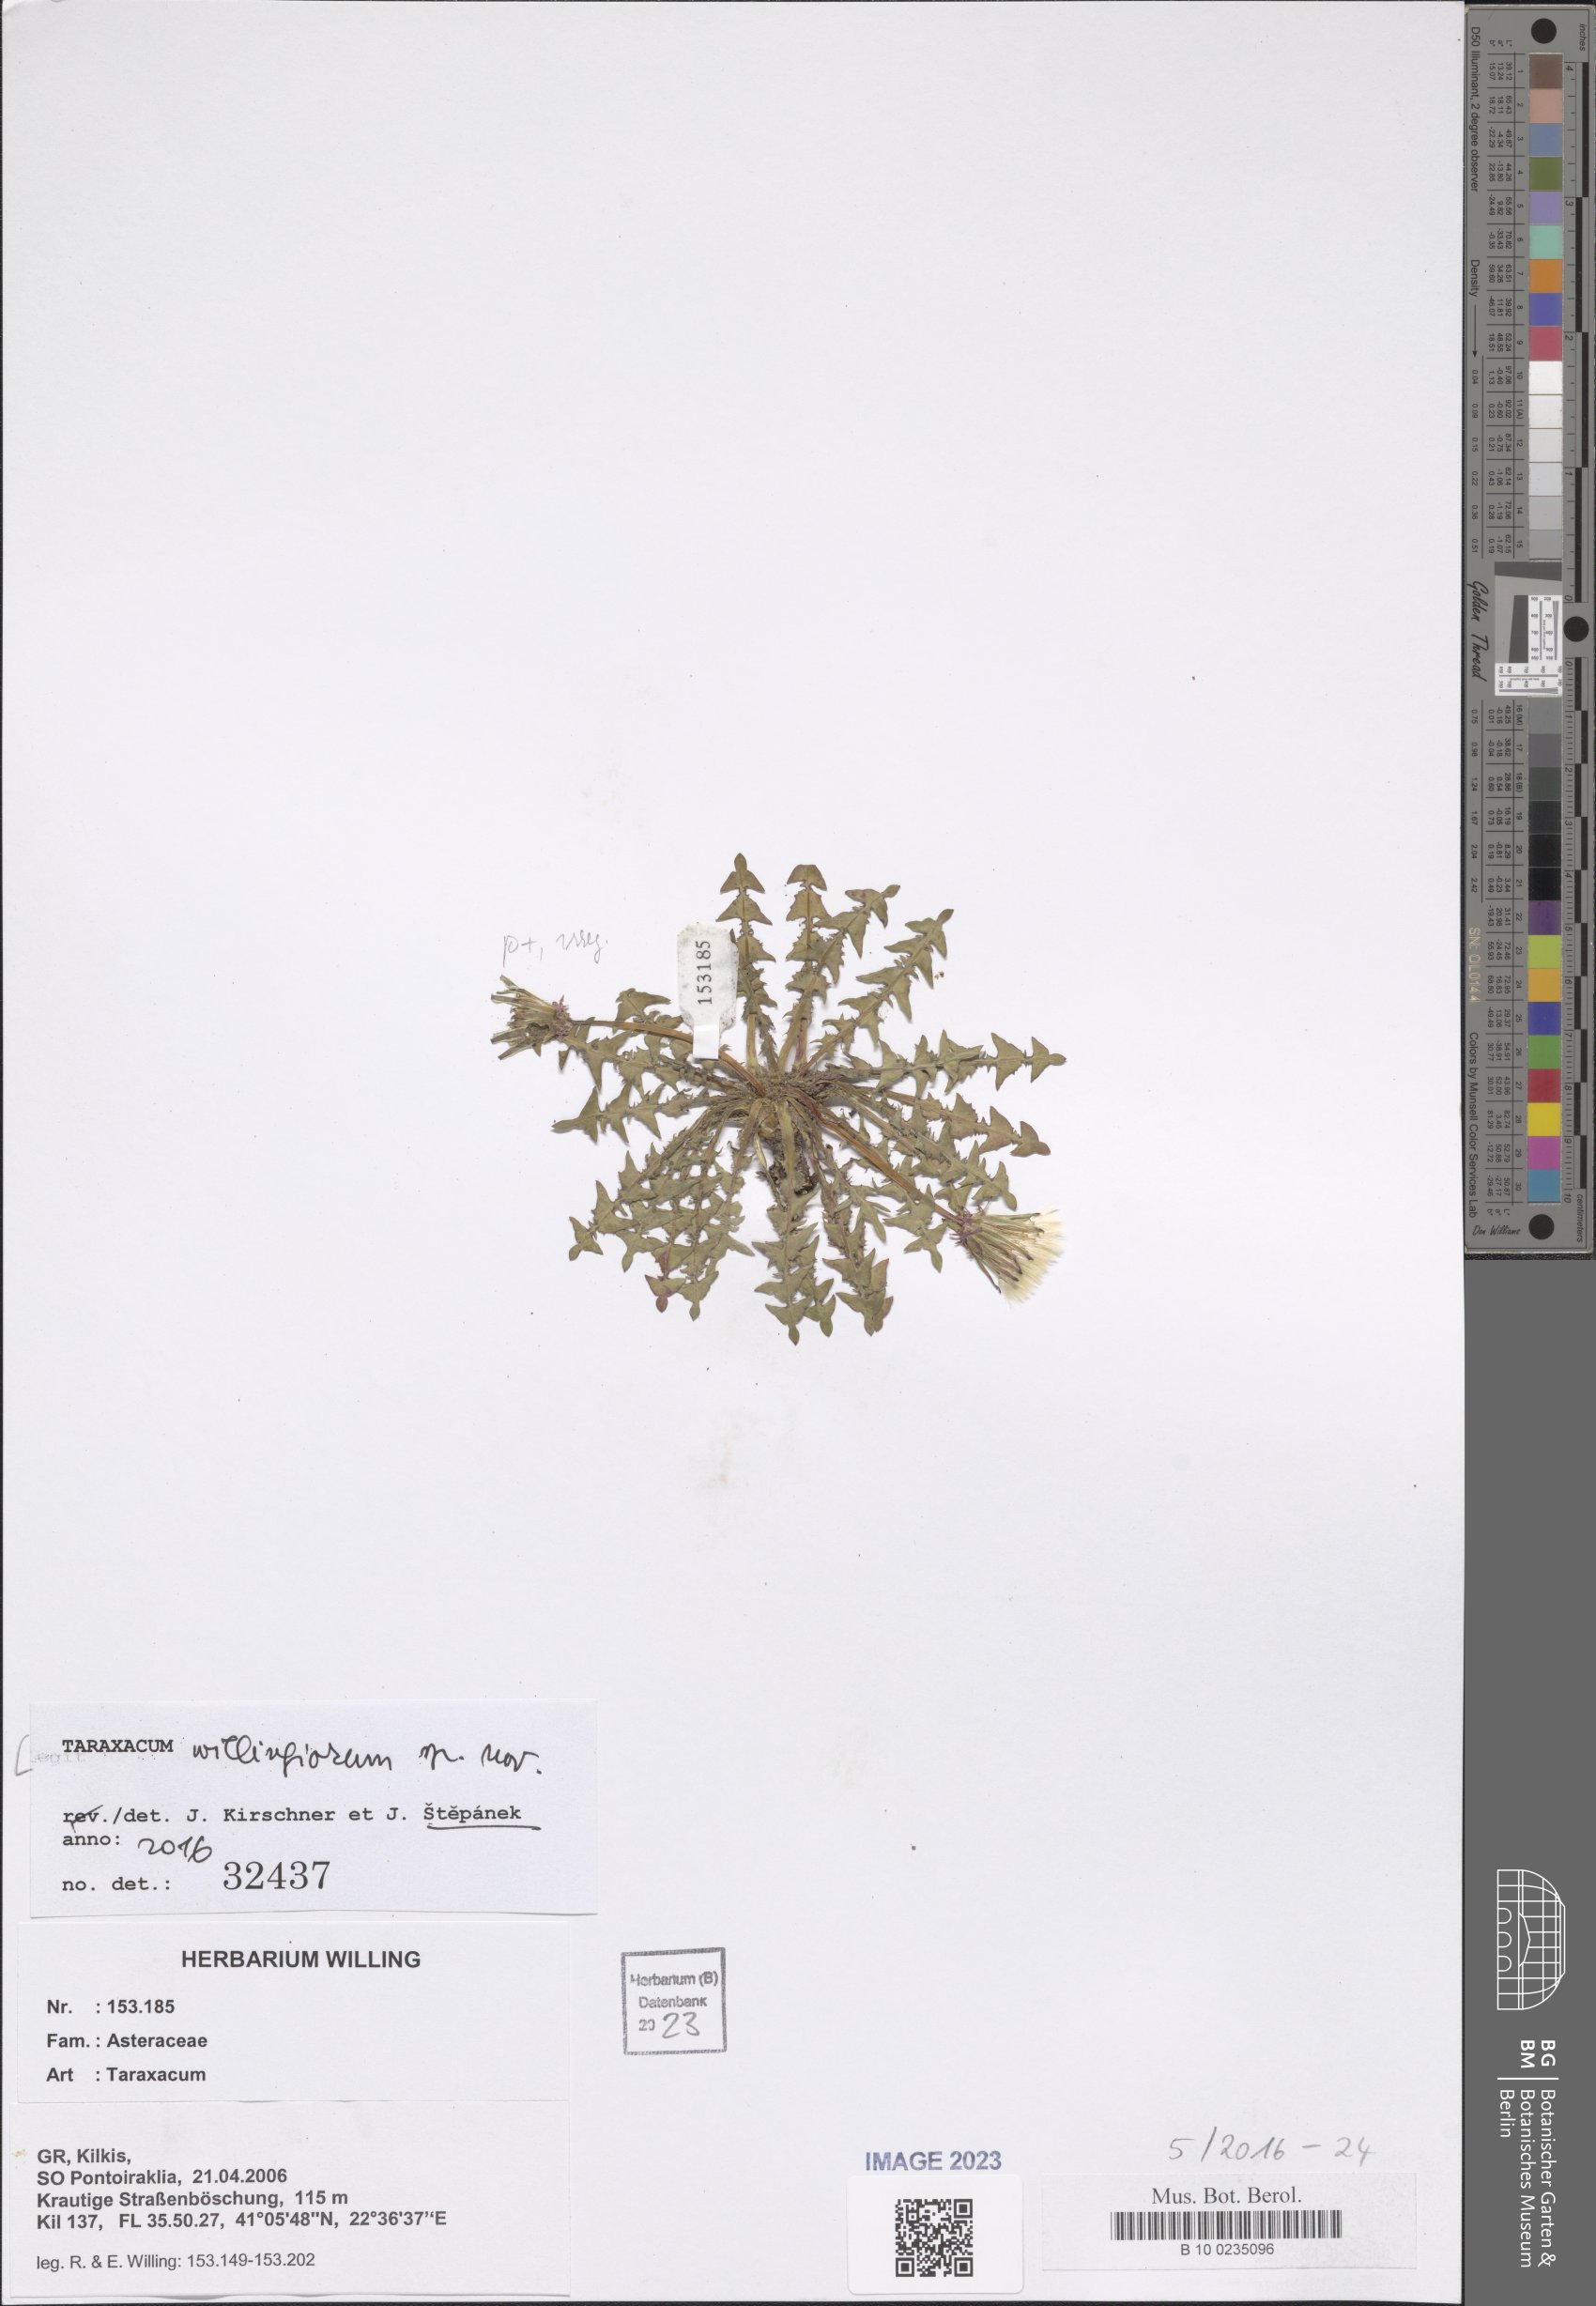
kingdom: Plantae
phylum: Tracheophyta
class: Magnoliopsida
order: Asterales
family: Asteraceae
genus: Taraxacum
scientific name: Taraxacum
